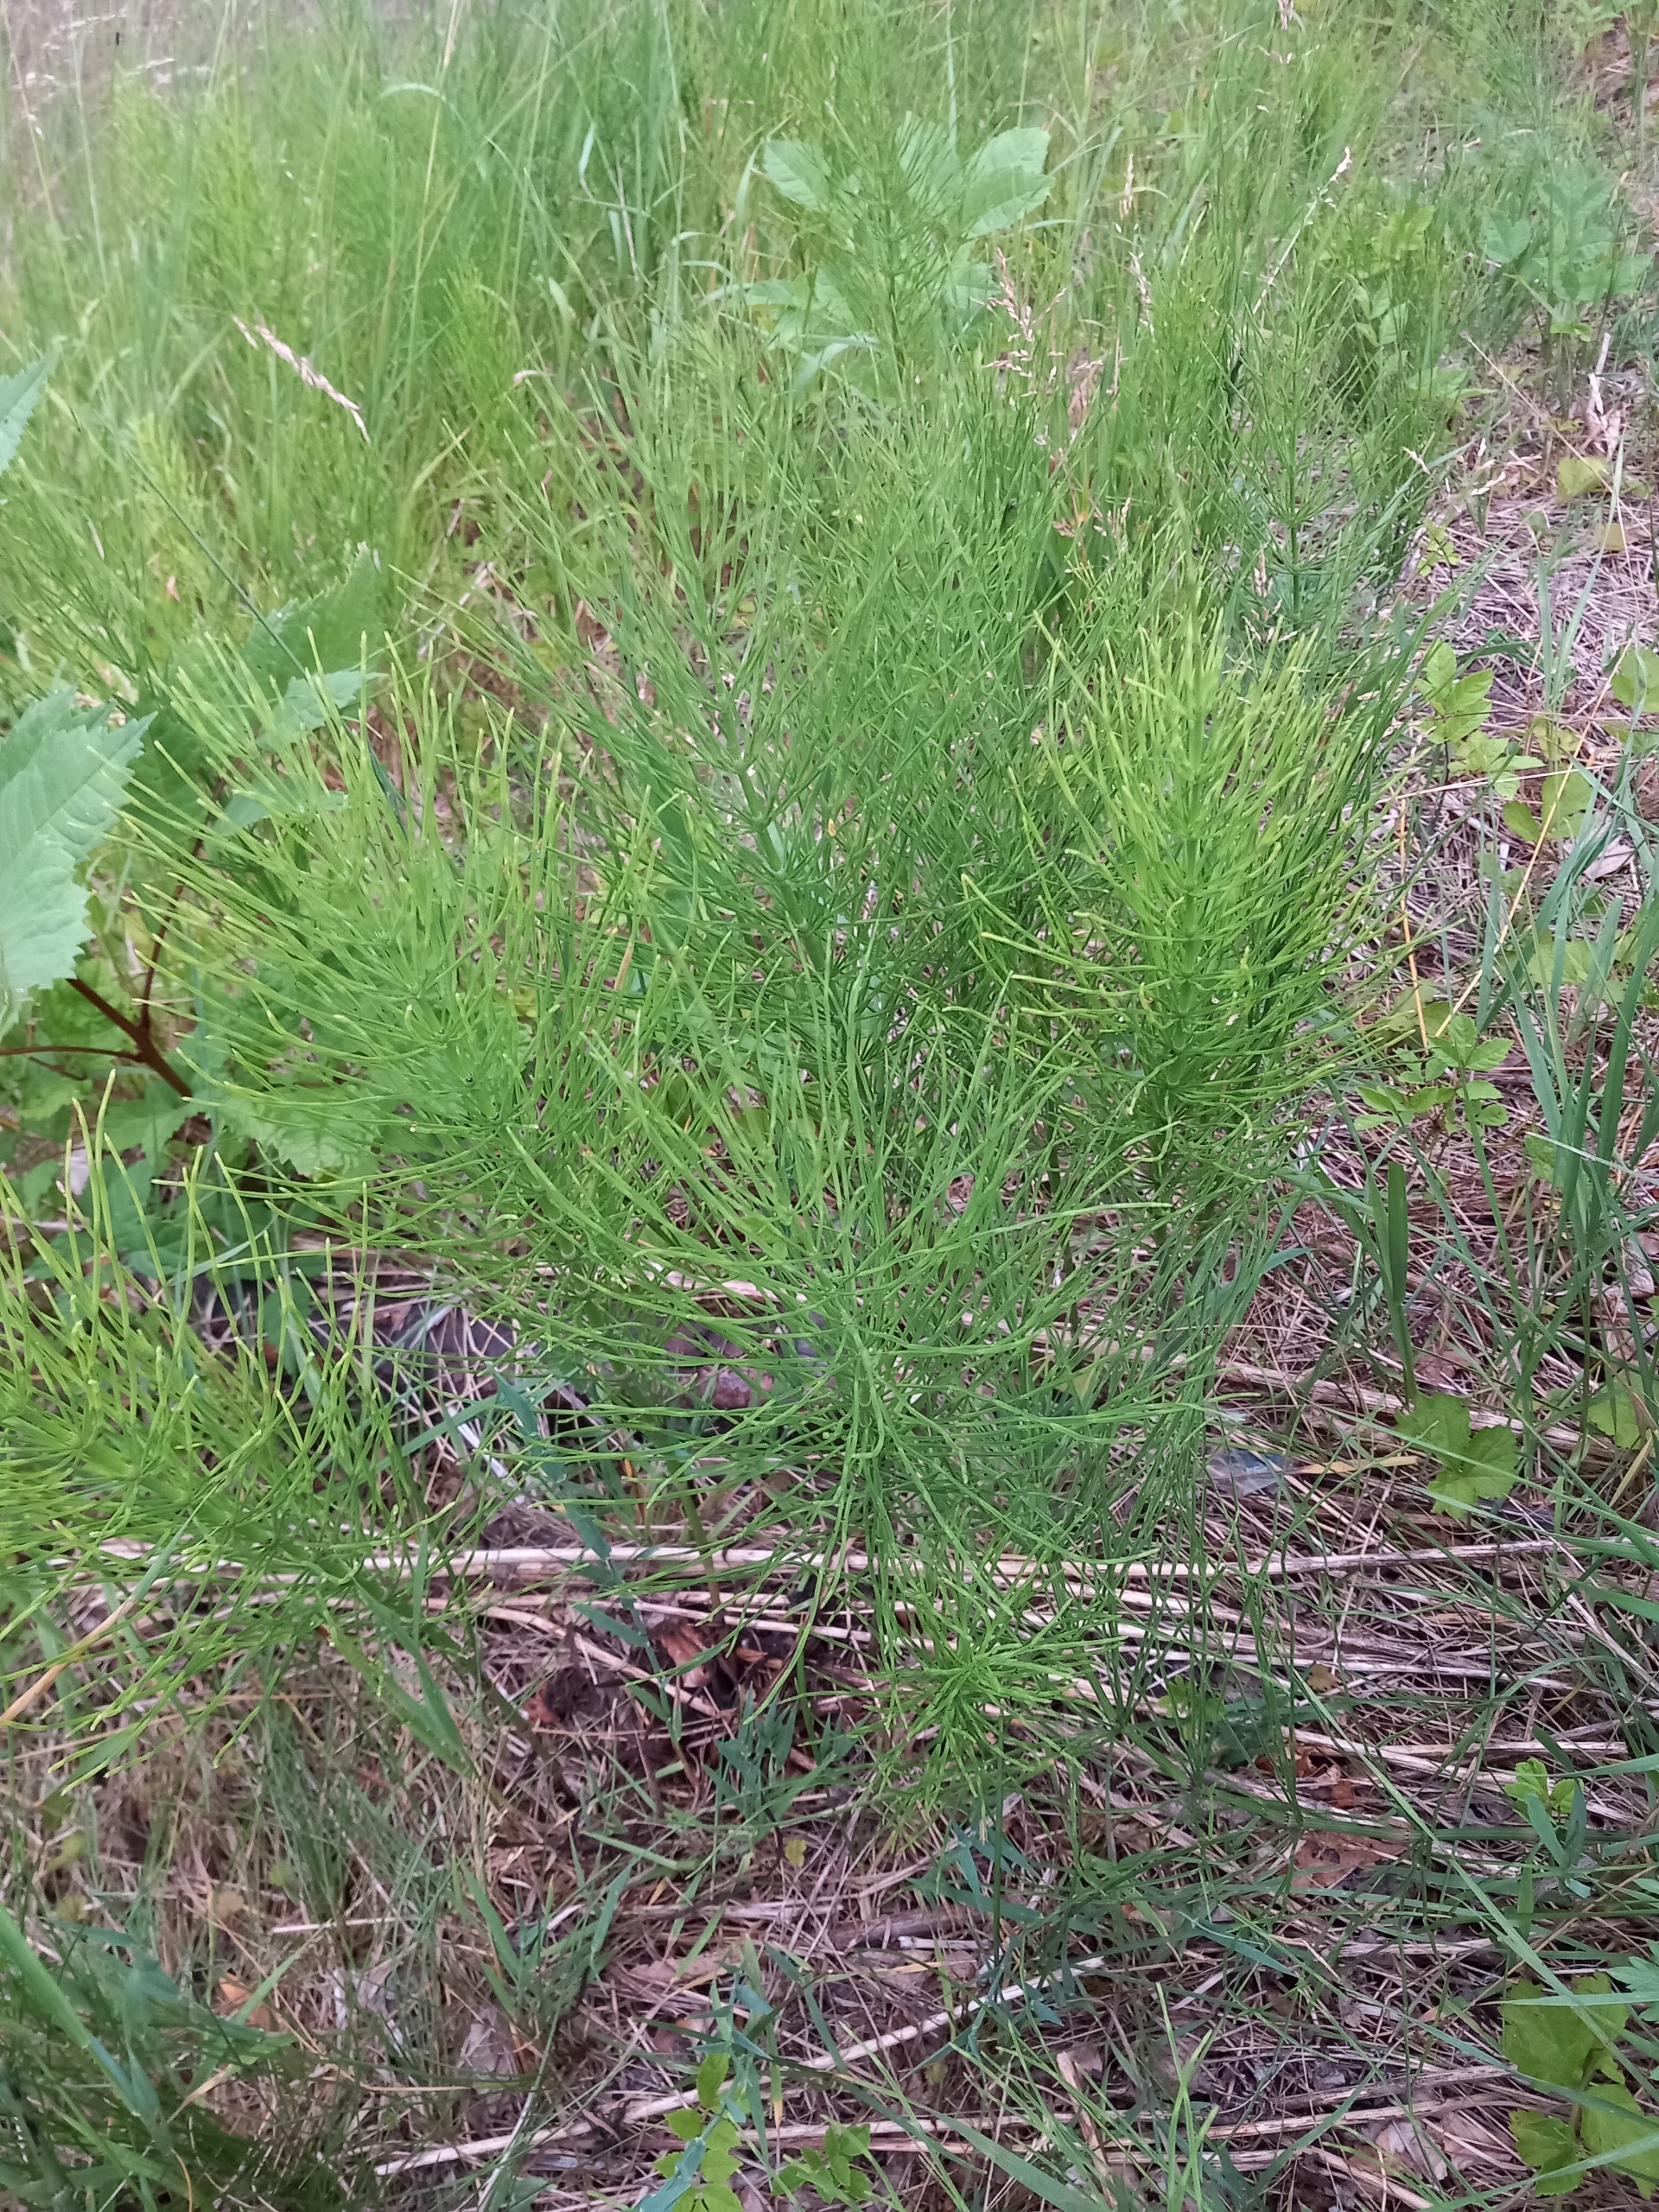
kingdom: Plantae
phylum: Tracheophyta
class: Polypodiopsida
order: Equisetales
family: Equisetaceae
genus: Equisetum
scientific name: Equisetum arvense
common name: Ager-padderok
